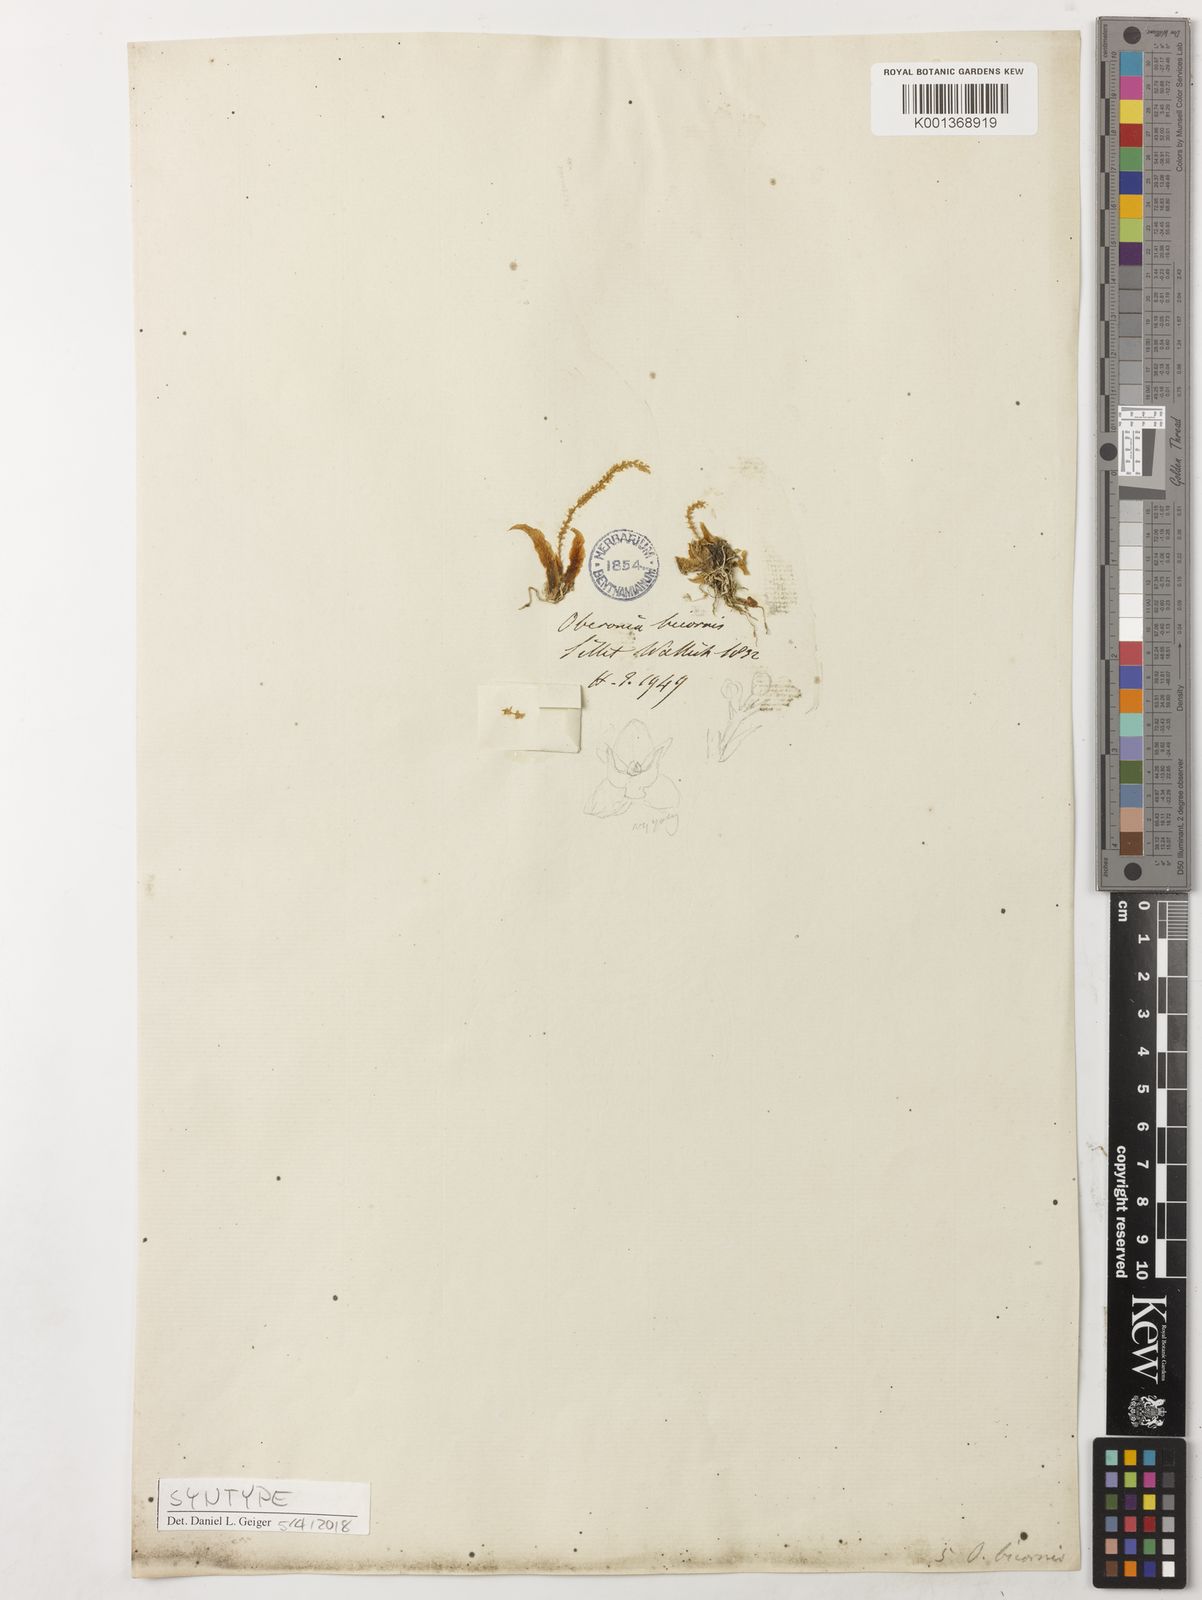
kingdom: Plantae
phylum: Tracheophyta
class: Liliopsida
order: Asparagales
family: Orchidaceae
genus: Oberonia
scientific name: Oberonia bicornis
